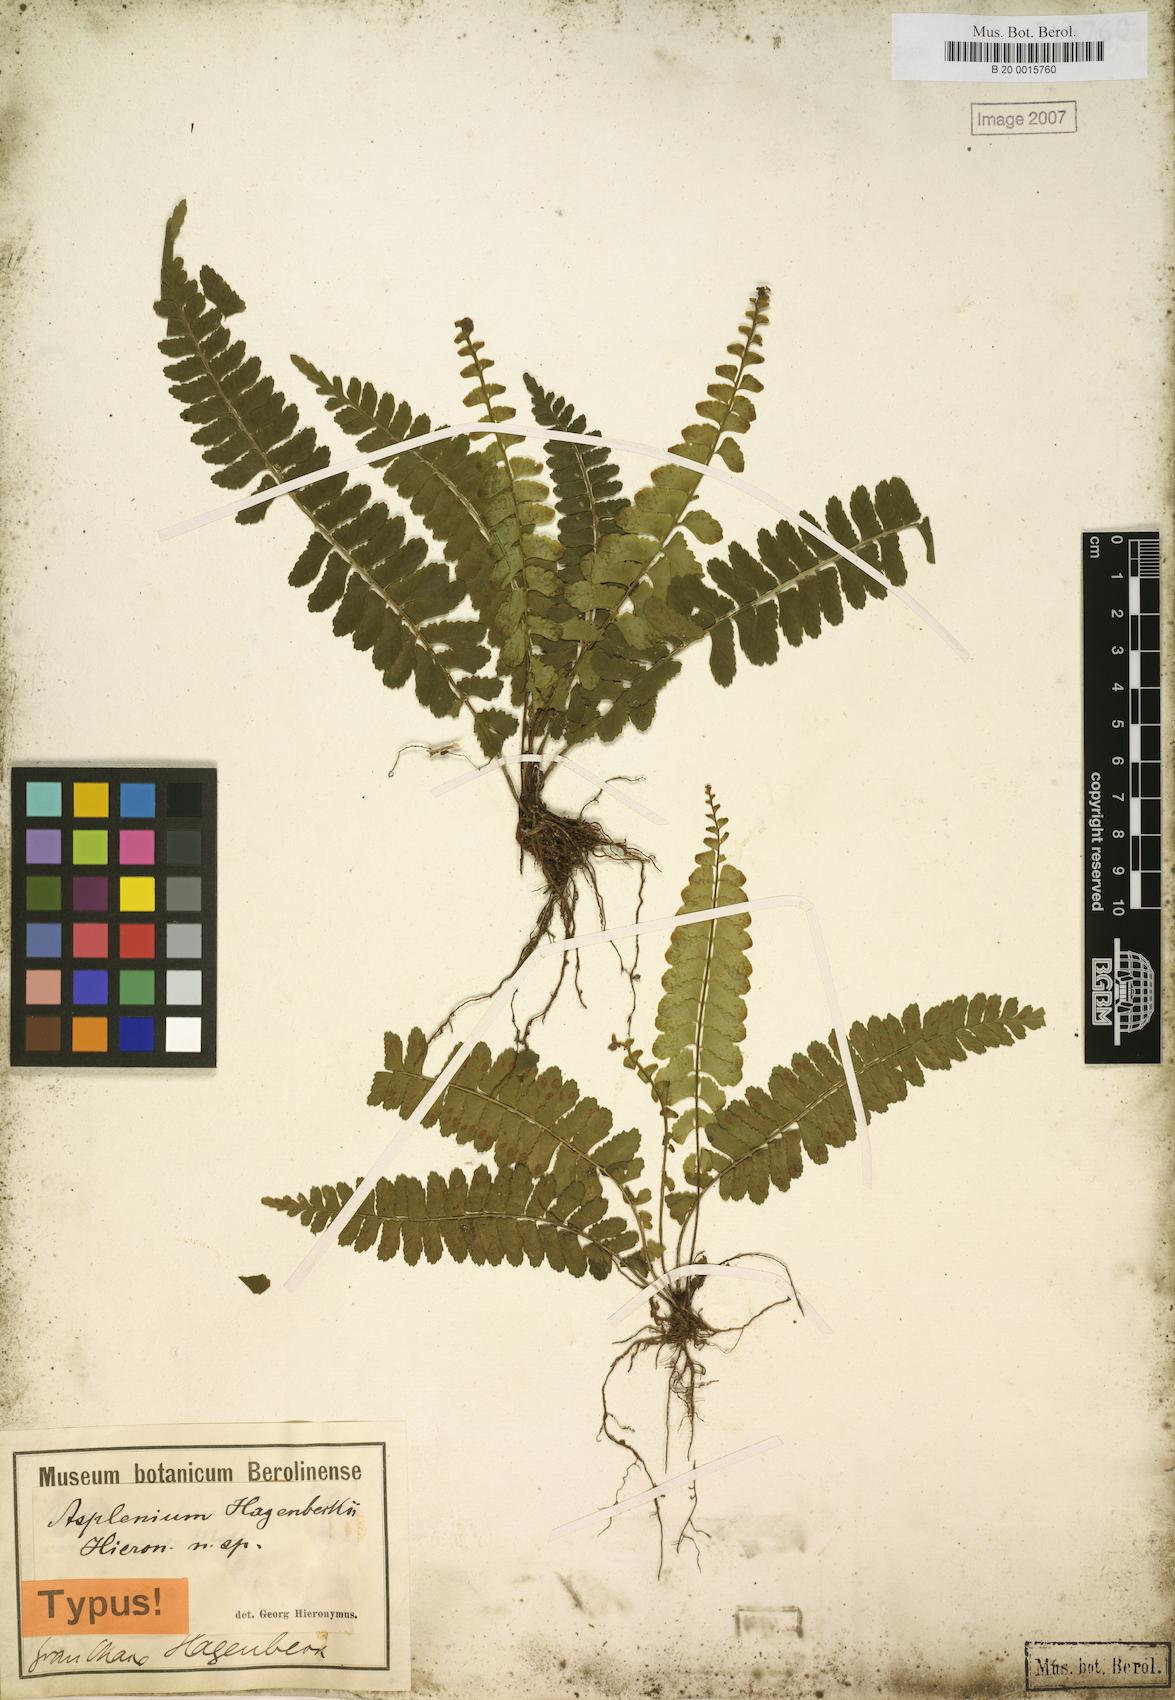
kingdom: Plantae
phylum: Tracheophyta
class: Polypodiopsida
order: Polypodiales
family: Aspleniaceae
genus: Asplenium
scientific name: Asplenium hagenbeckii
